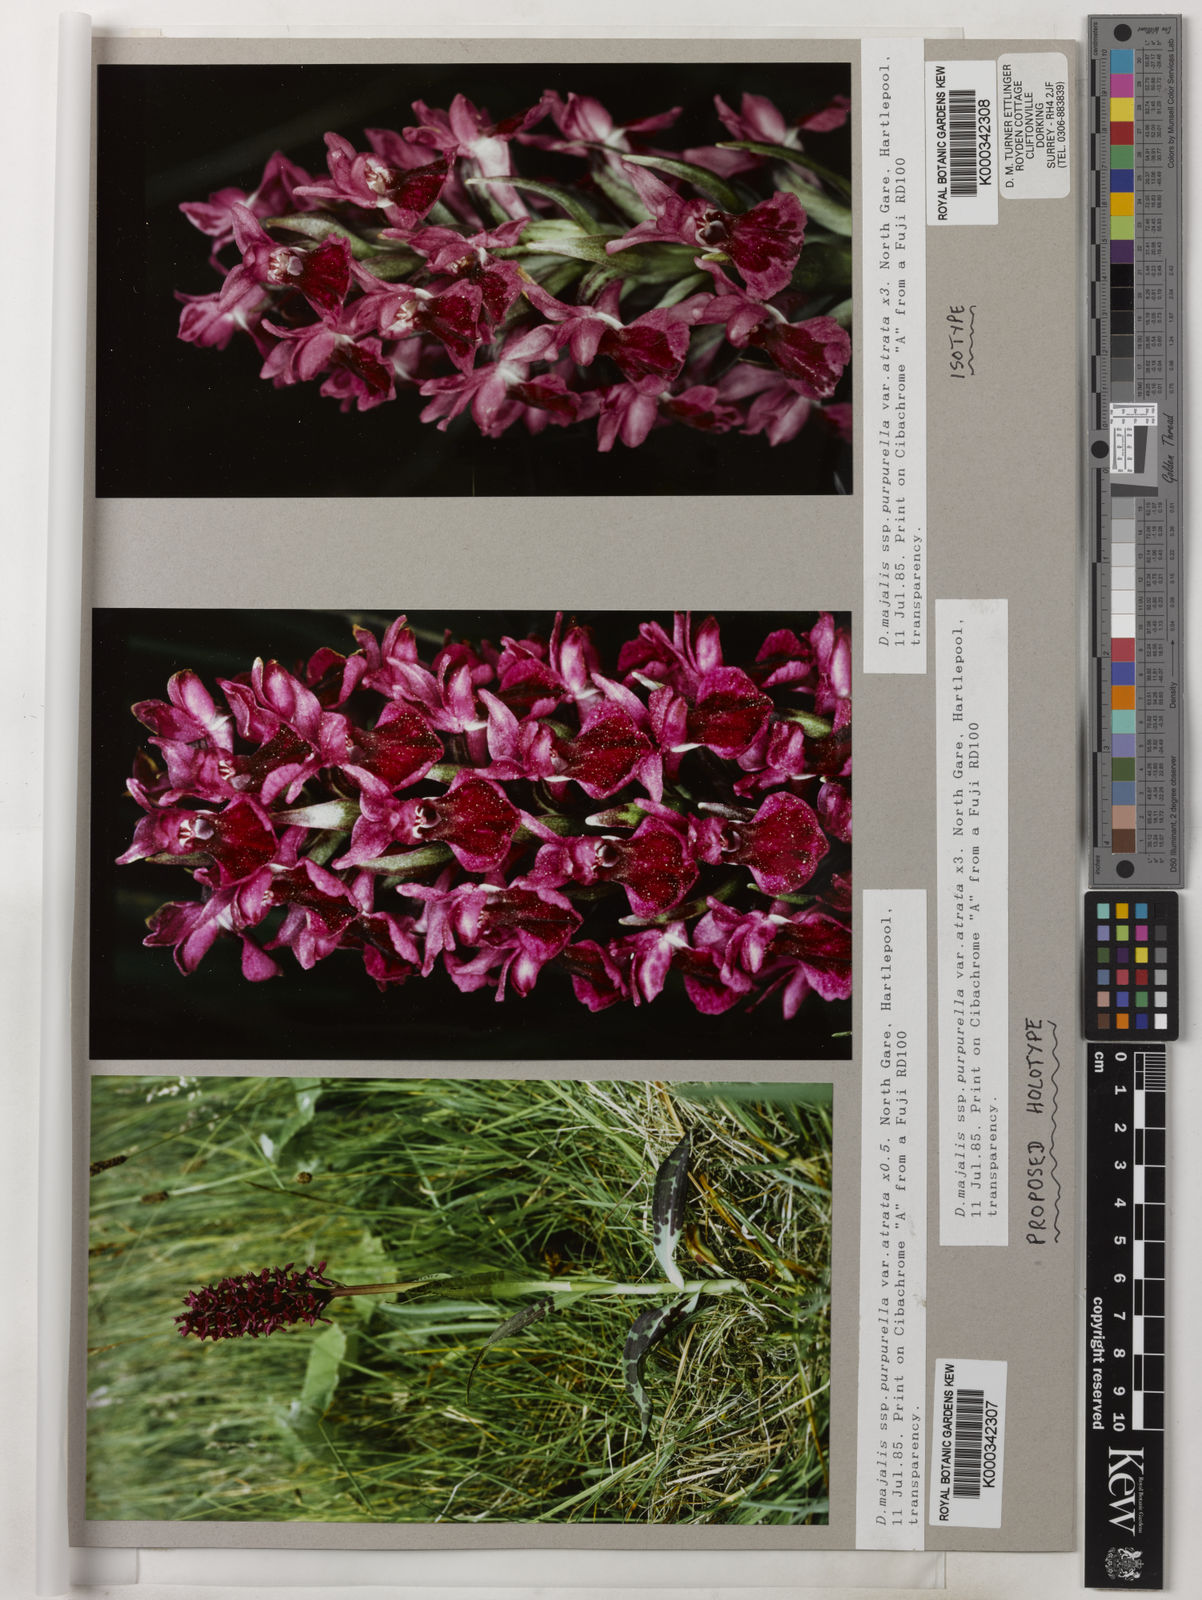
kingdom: Plantae
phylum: Tracheophyta
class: Liliopsida
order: Asparagales
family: Orchidaceae
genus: Dactylorhiza
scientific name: Dactylorhiza majalis
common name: Marsh orchid
